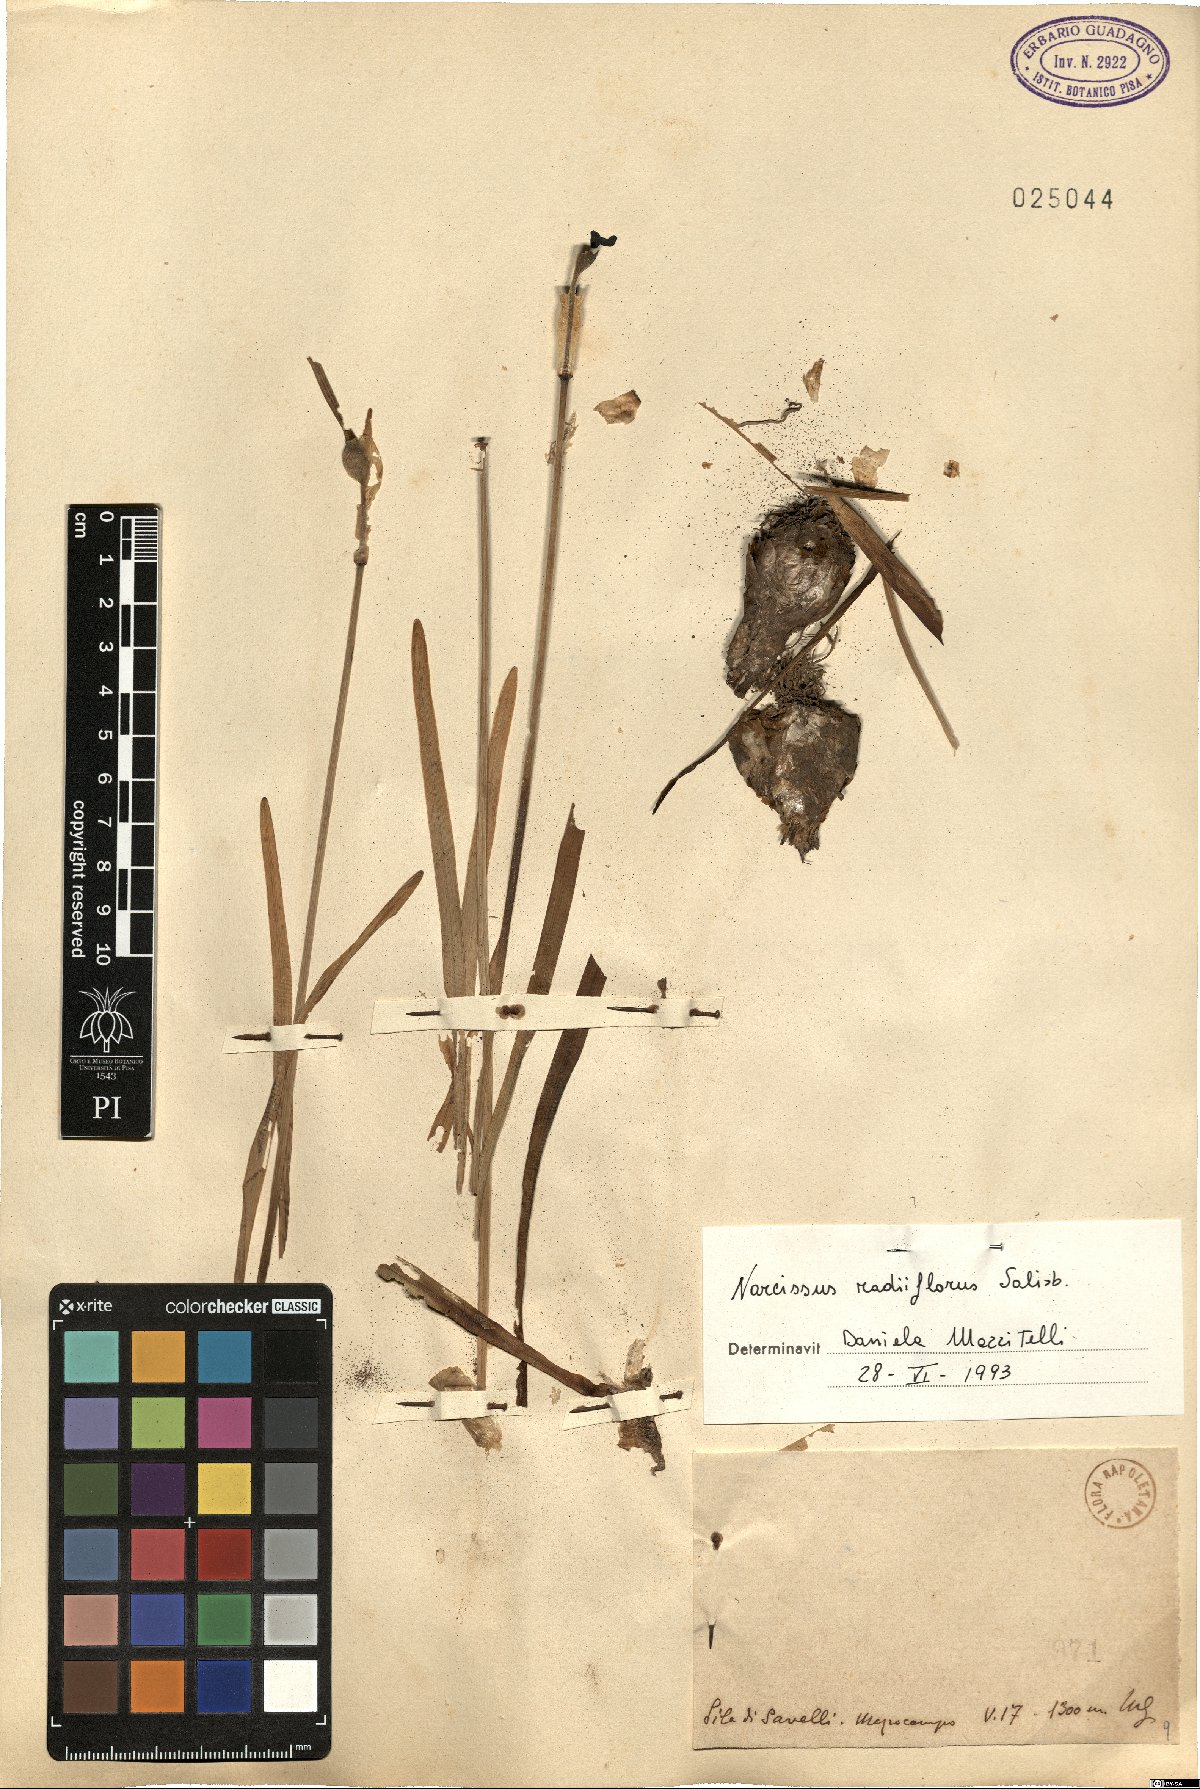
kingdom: Plantae
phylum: Tracheophyta
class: Liliopsida
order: Asparagales
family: Amaryllidaceae
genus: Narcissus
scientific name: Narcissus poeticus
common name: Pheasant's-eye daffodil
